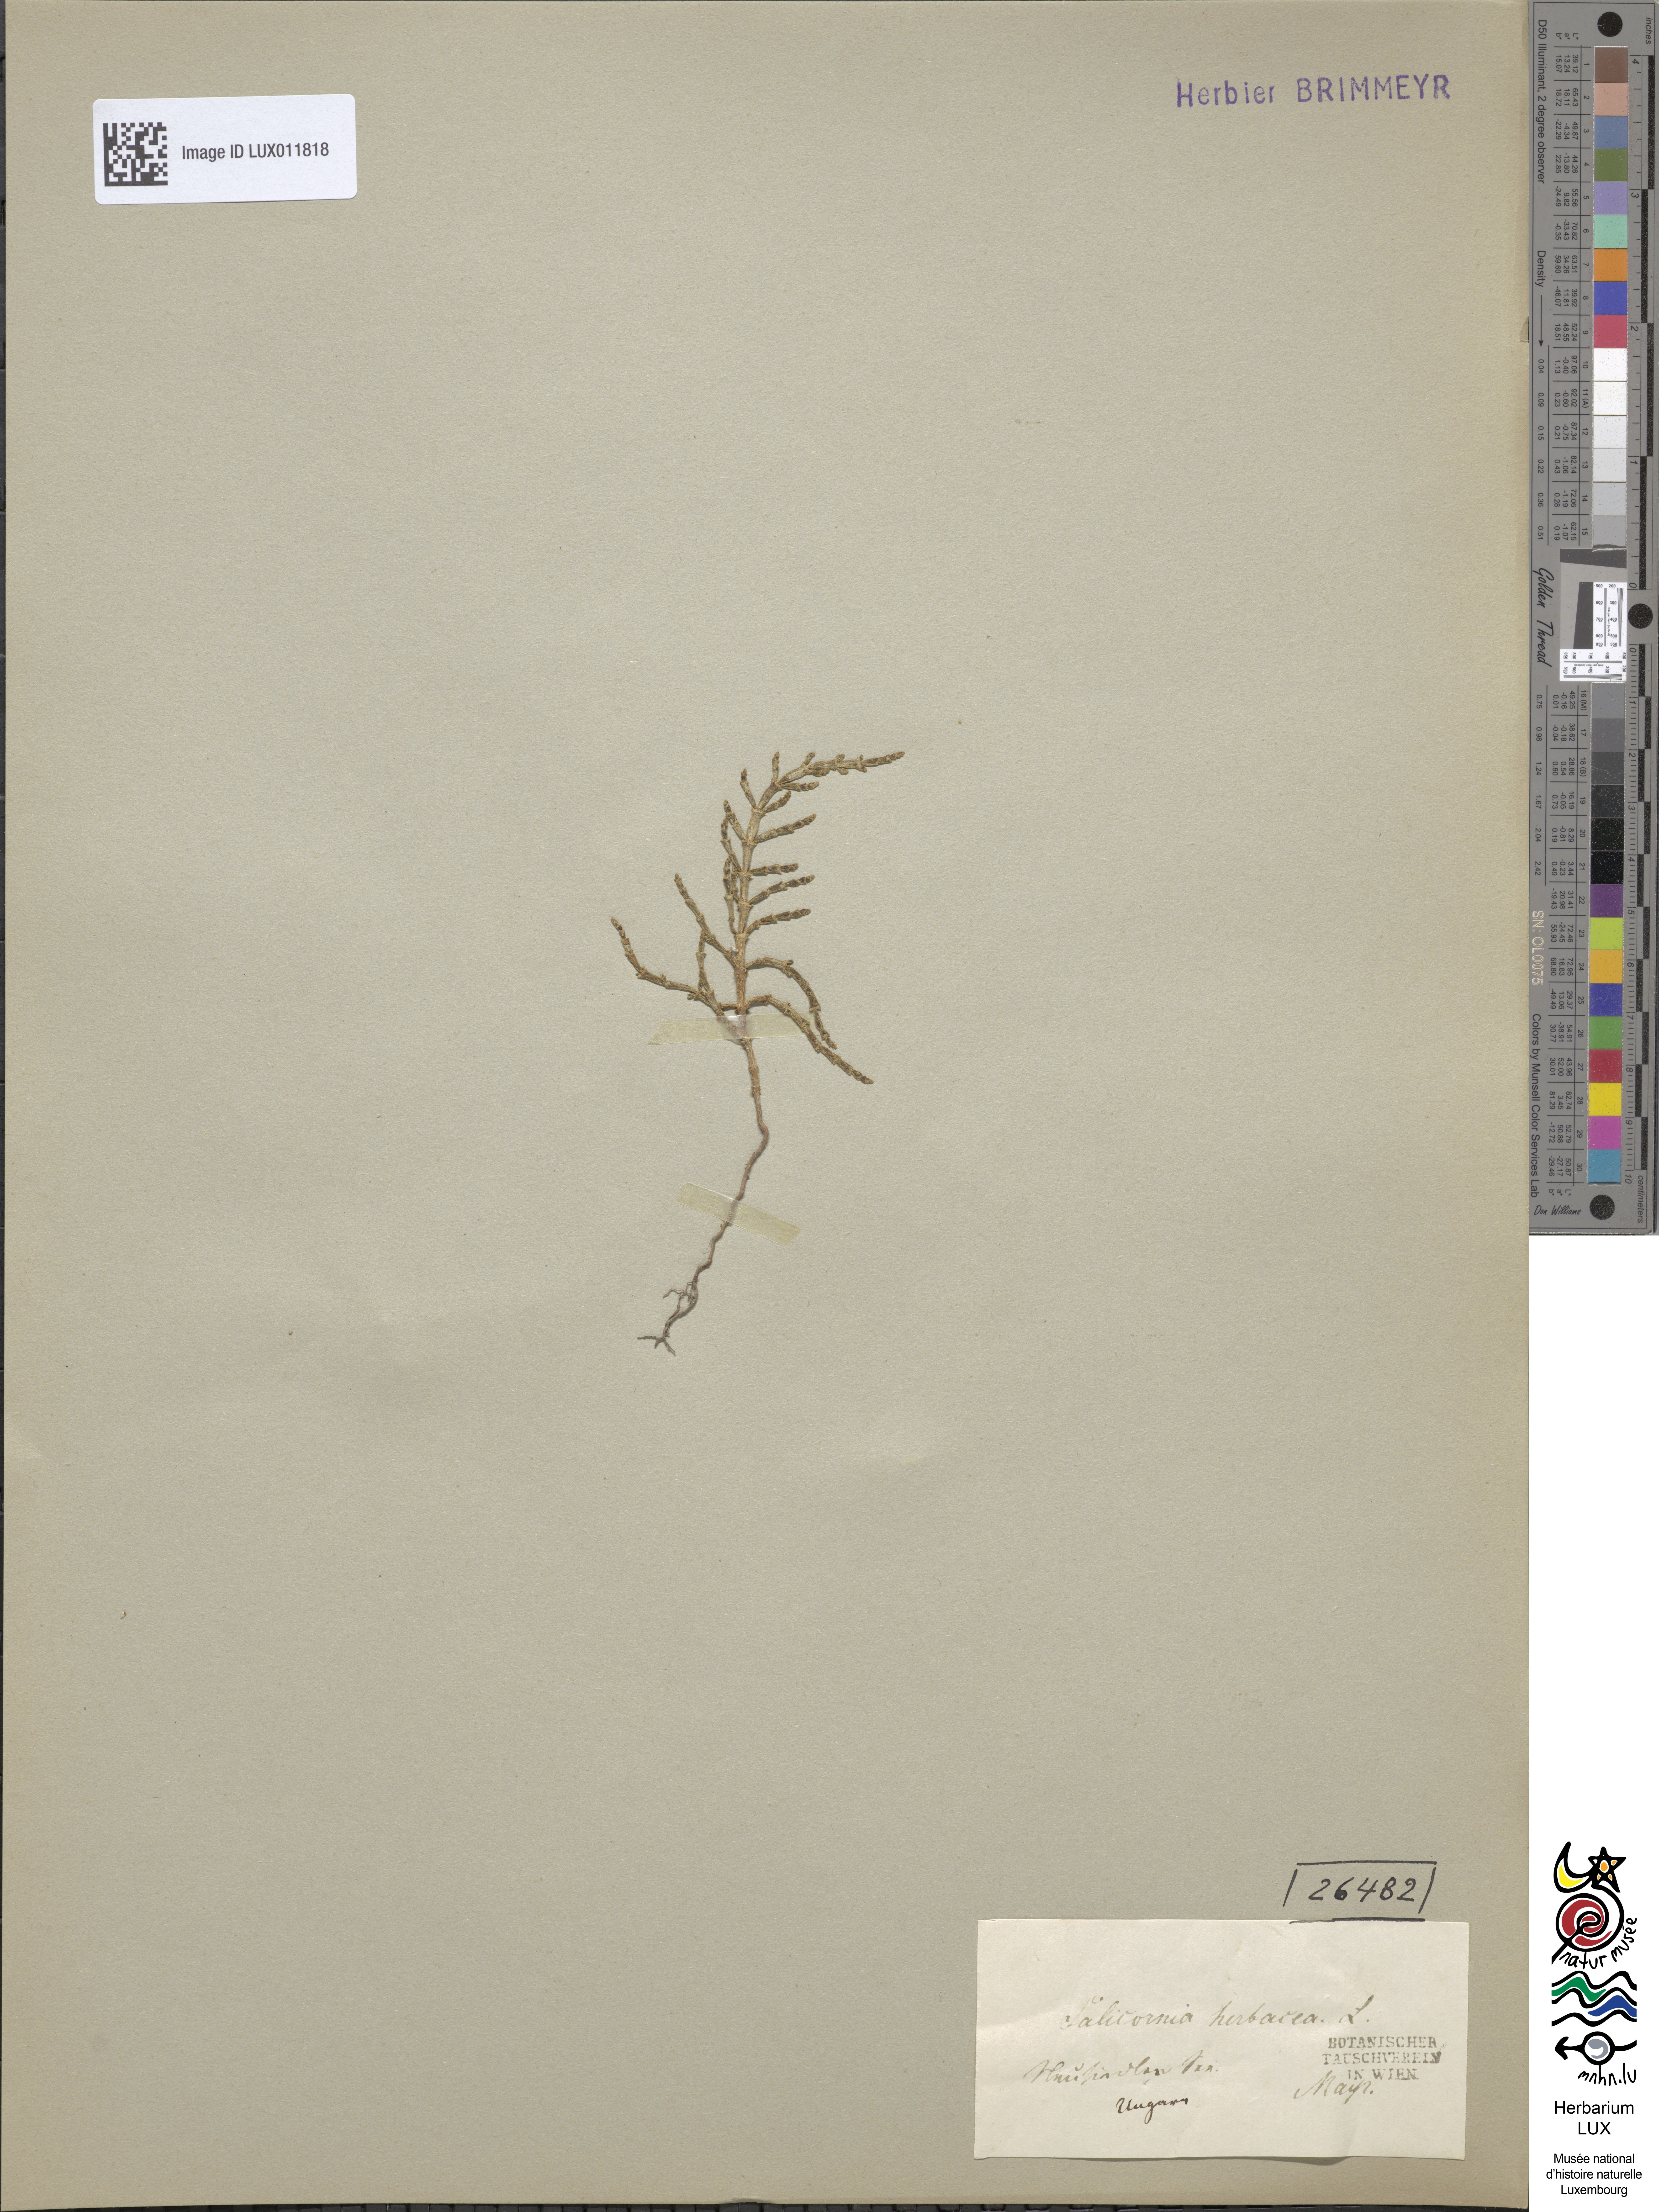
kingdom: Plantae
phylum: Tracheophyta
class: Magnoliopsida
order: Caryophyllales
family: Amaranthaceae
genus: Salicornia
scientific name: Salicornia europaea
